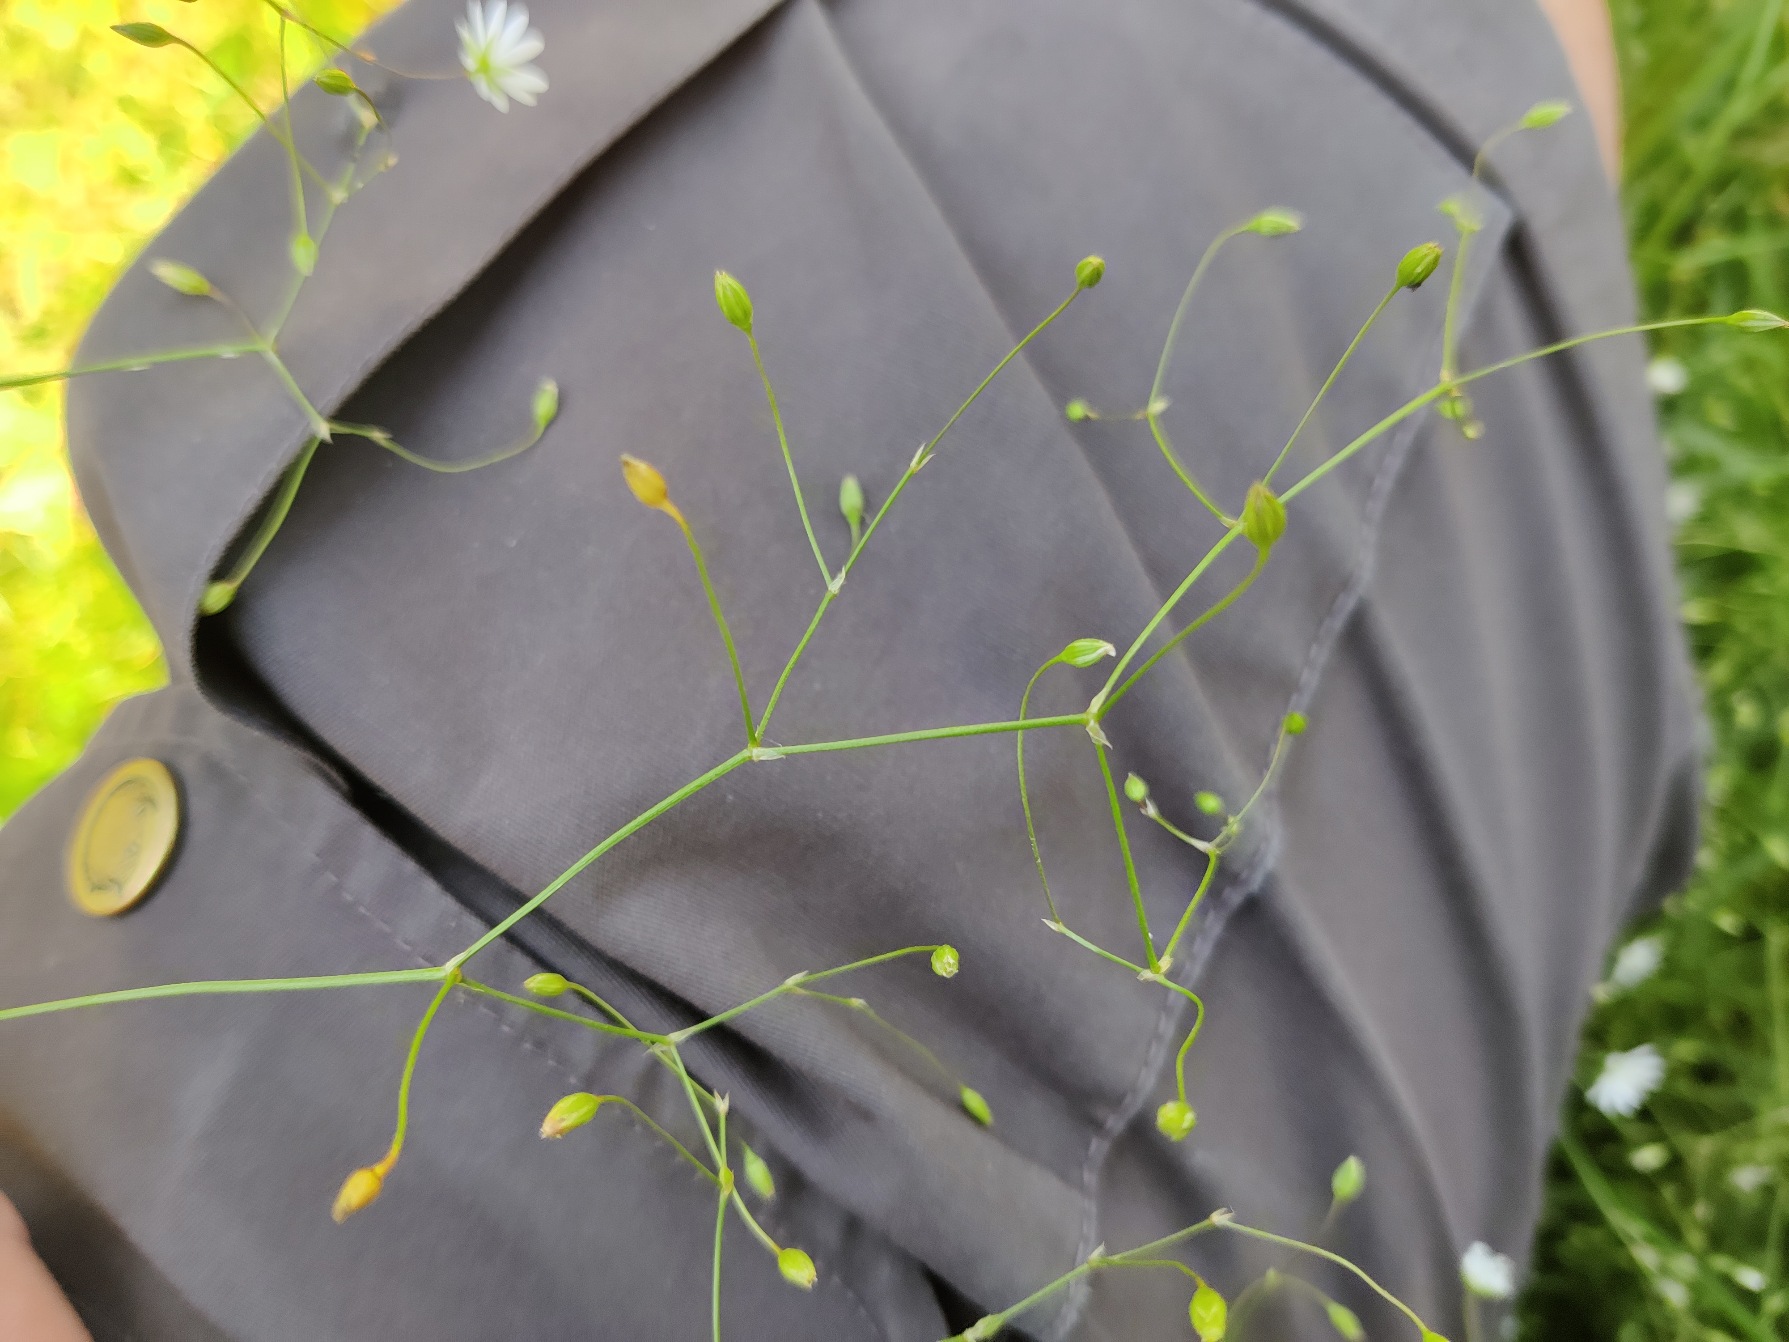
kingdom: Plantae
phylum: Tracheophyta
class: Magnoliopsida
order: Caryophyllales
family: Caryophyllaceae
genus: Stellaria
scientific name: Stellaria graminea
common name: Græsbladet fladstjerne
